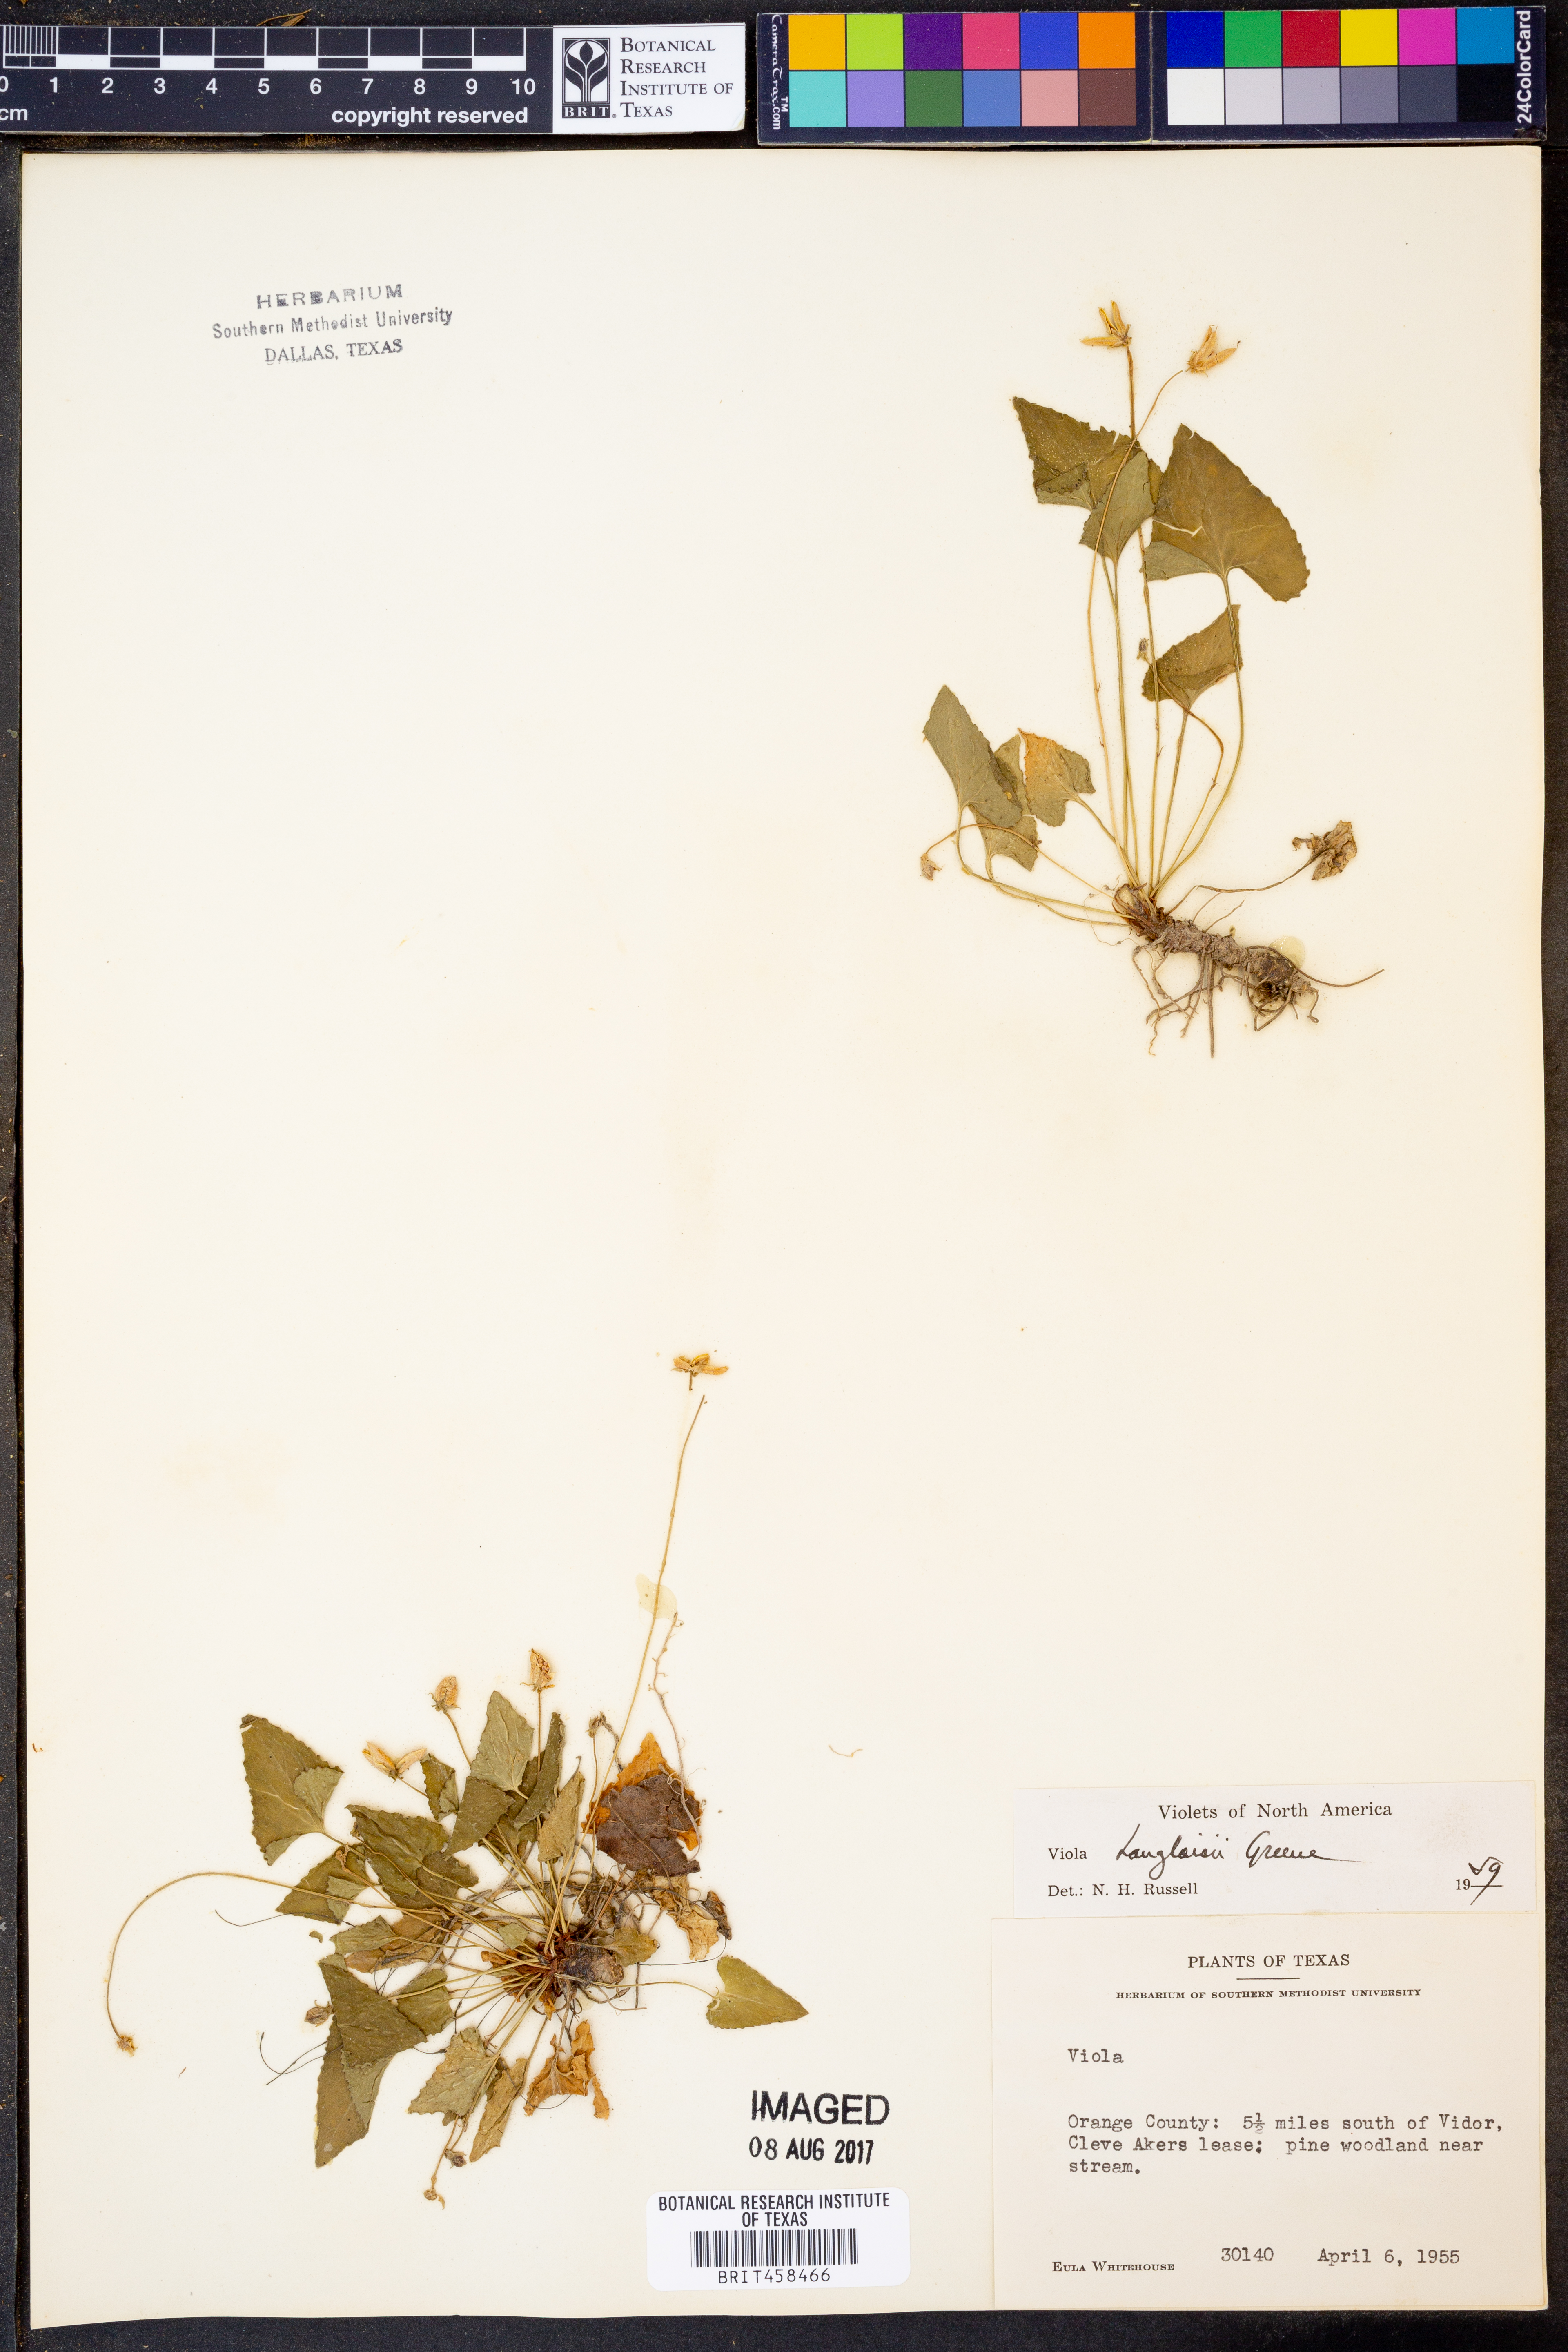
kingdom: Plantae
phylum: Tracheophyta
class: Magnoliopsida
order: Malpighiales
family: Violaceae
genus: Viola
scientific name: Viola langloisii
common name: Langlois' violet
